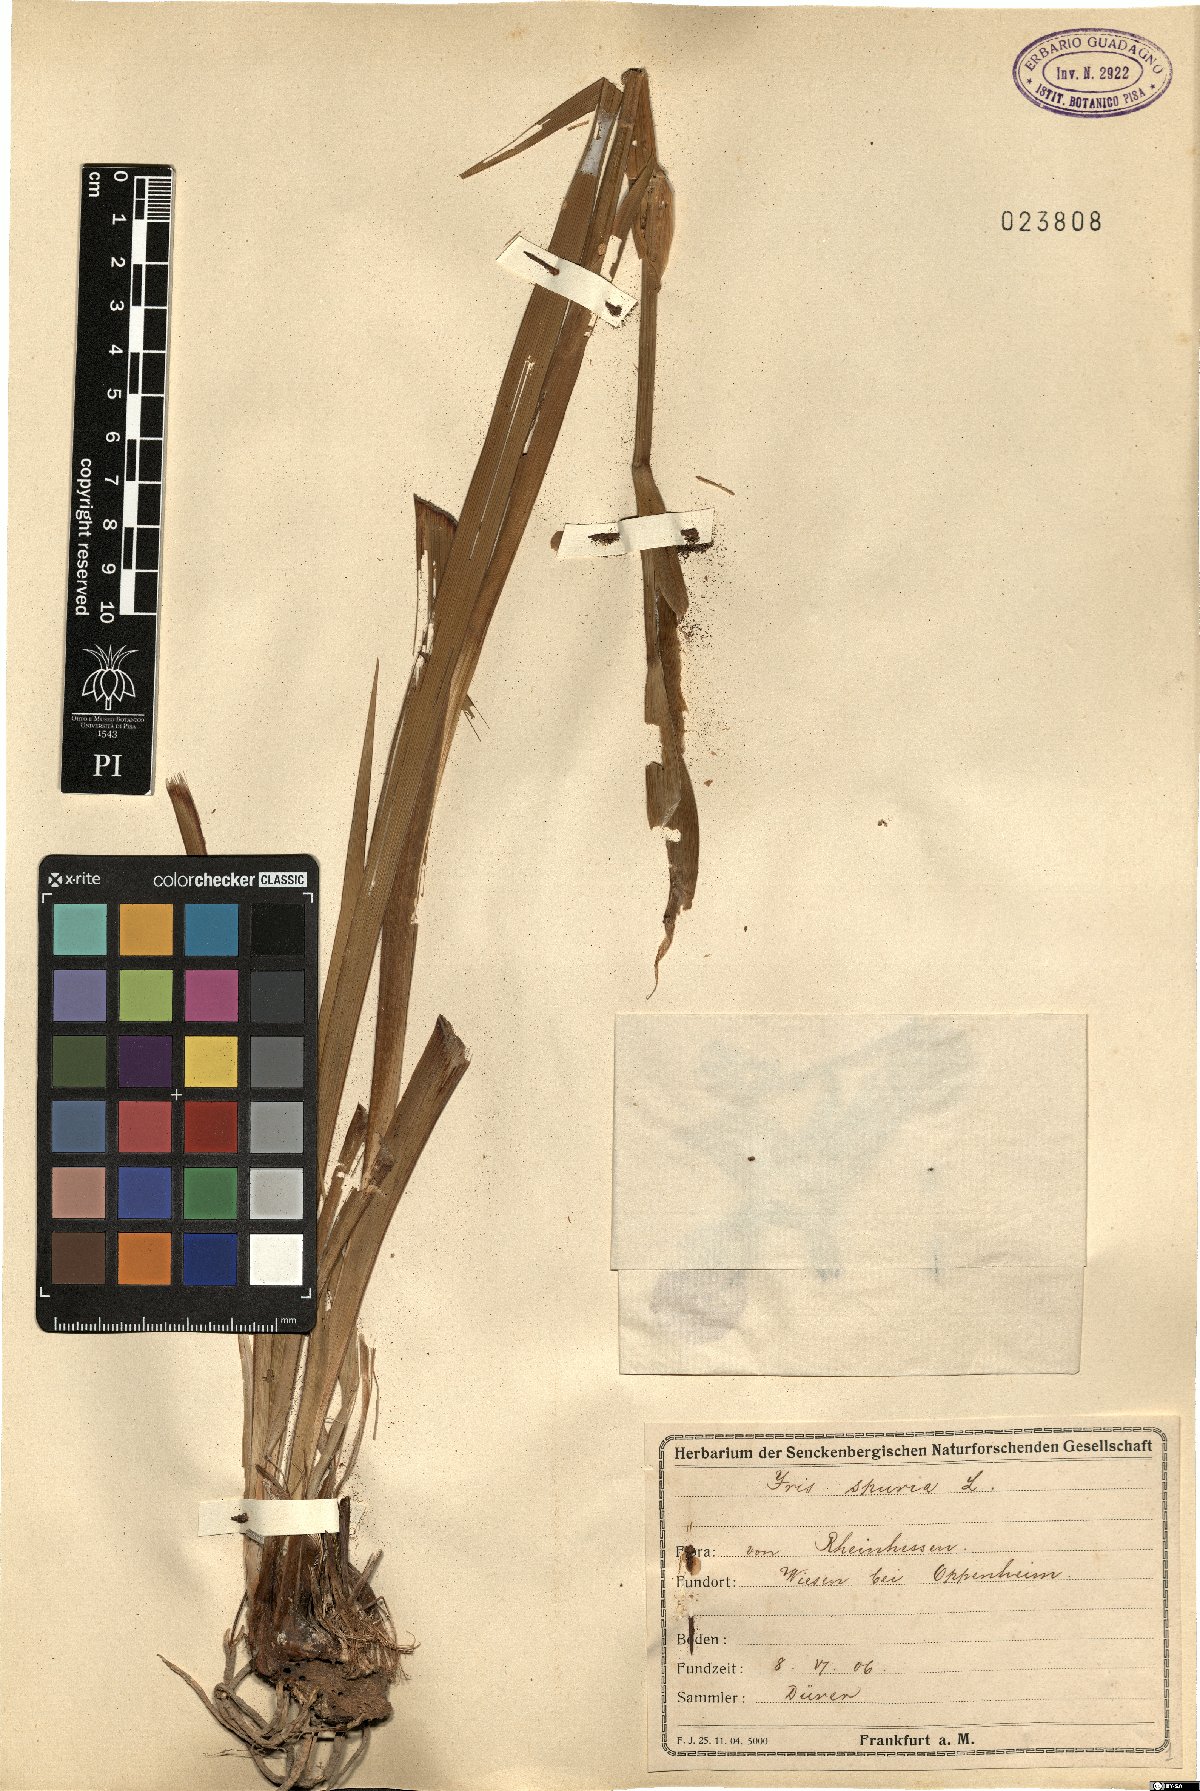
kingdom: Plantae
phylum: Tracheophyta
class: Liliopsida
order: Asparagales
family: Iridaceae
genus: Iris
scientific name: Iris spuria
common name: Blue iris
